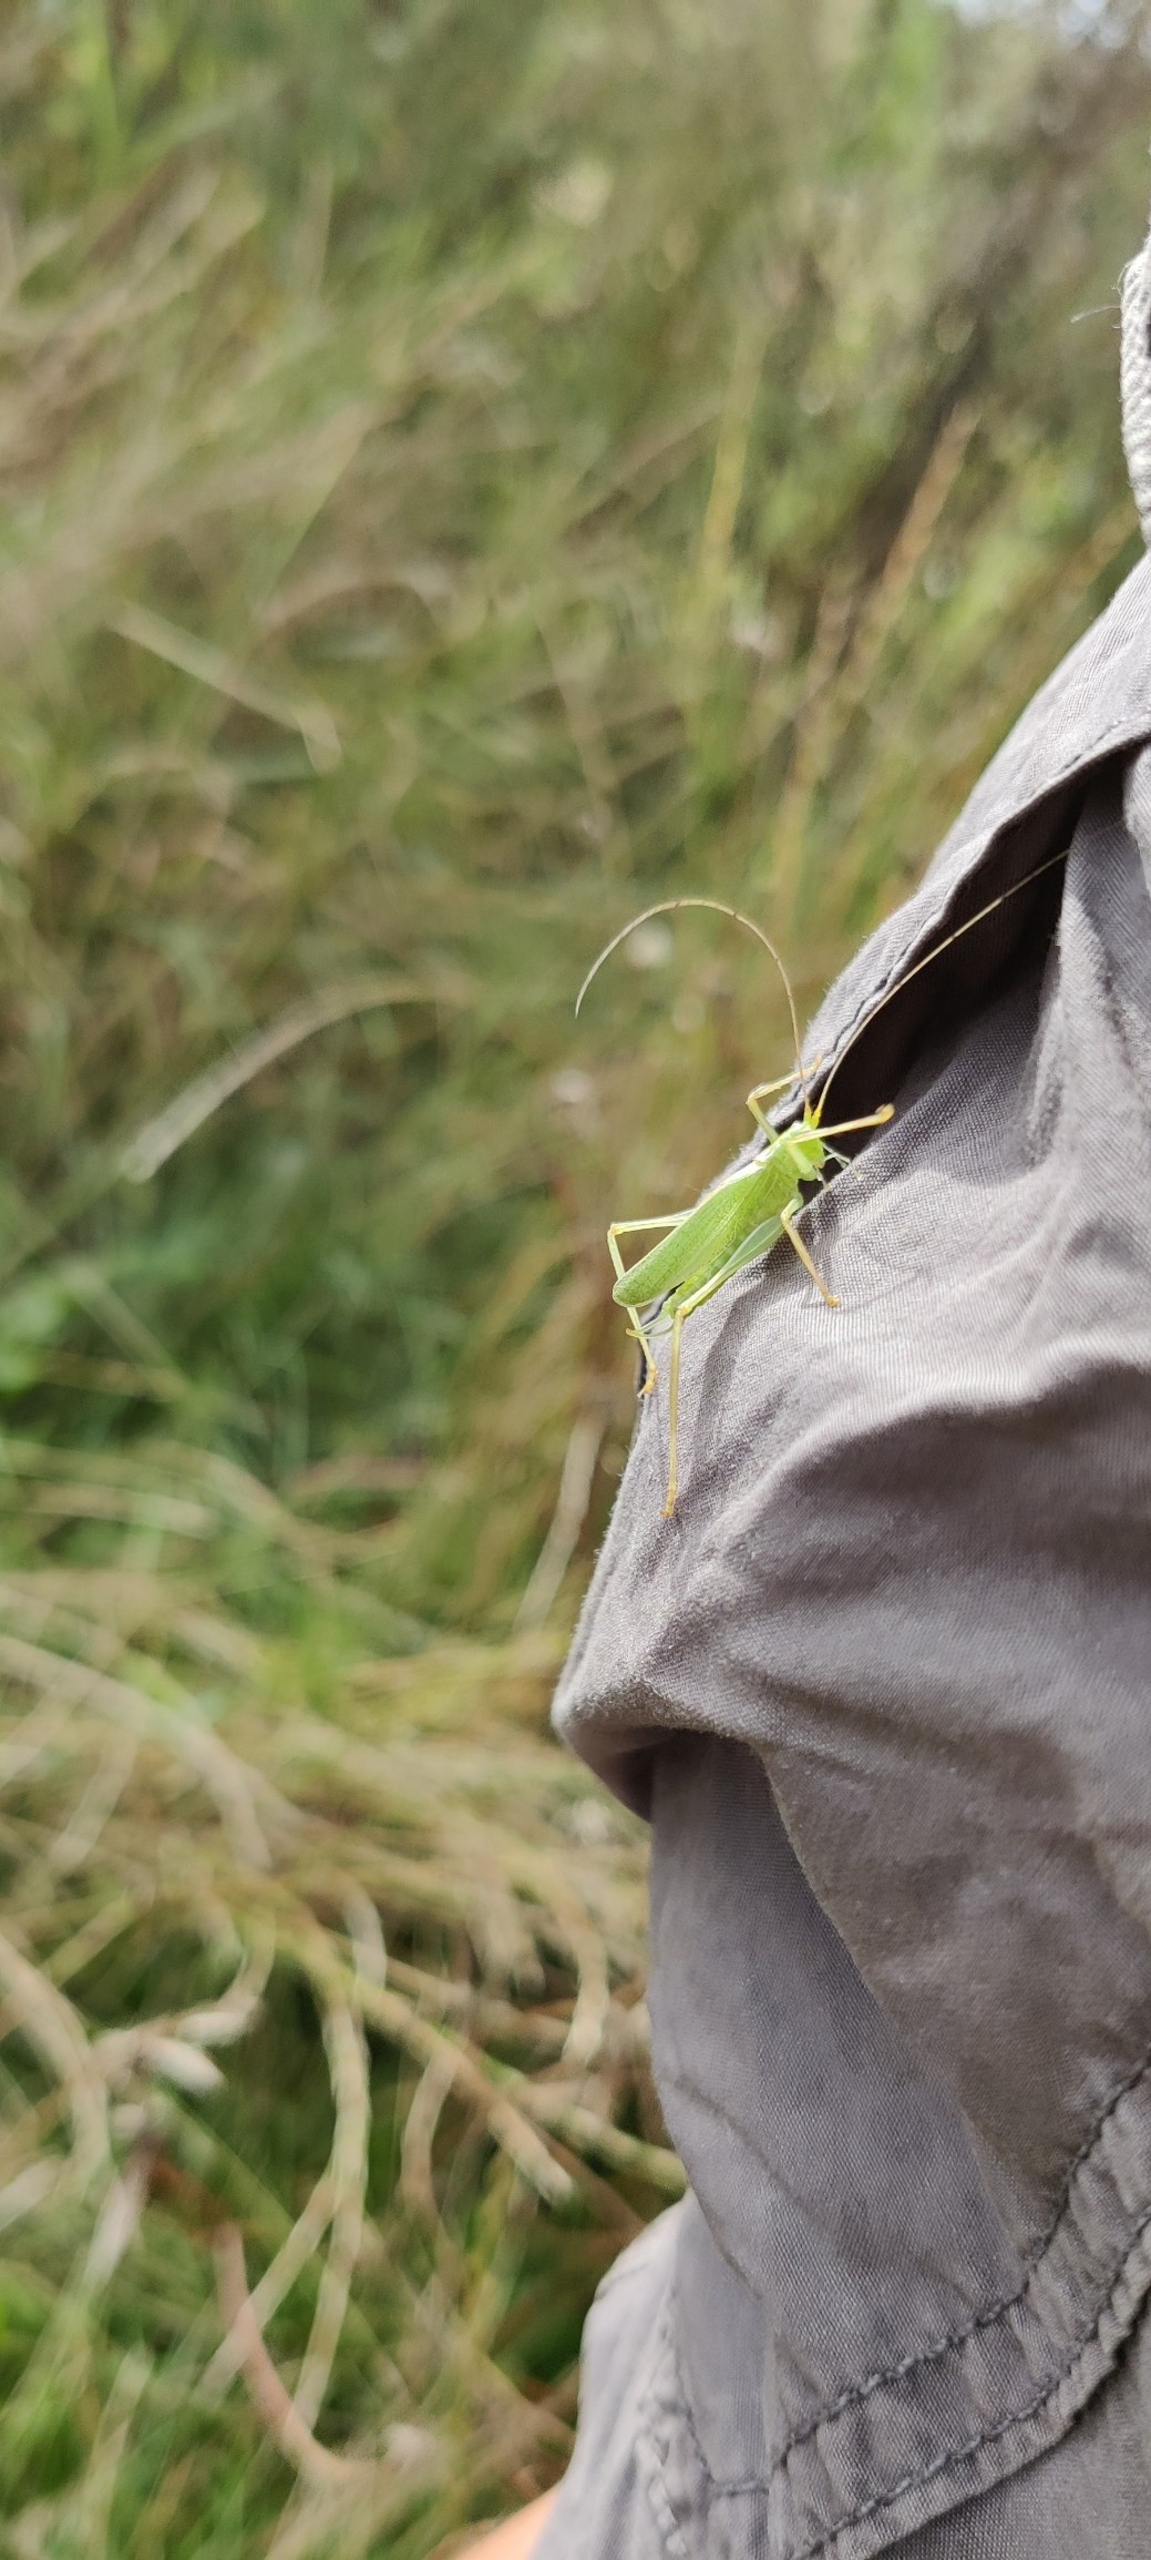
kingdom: Animalia
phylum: Arthropoda
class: Insecta
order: Orthoptera
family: Tettigoniidae
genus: Meconema
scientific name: Meconema thalassinum
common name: Egegræshoppe
